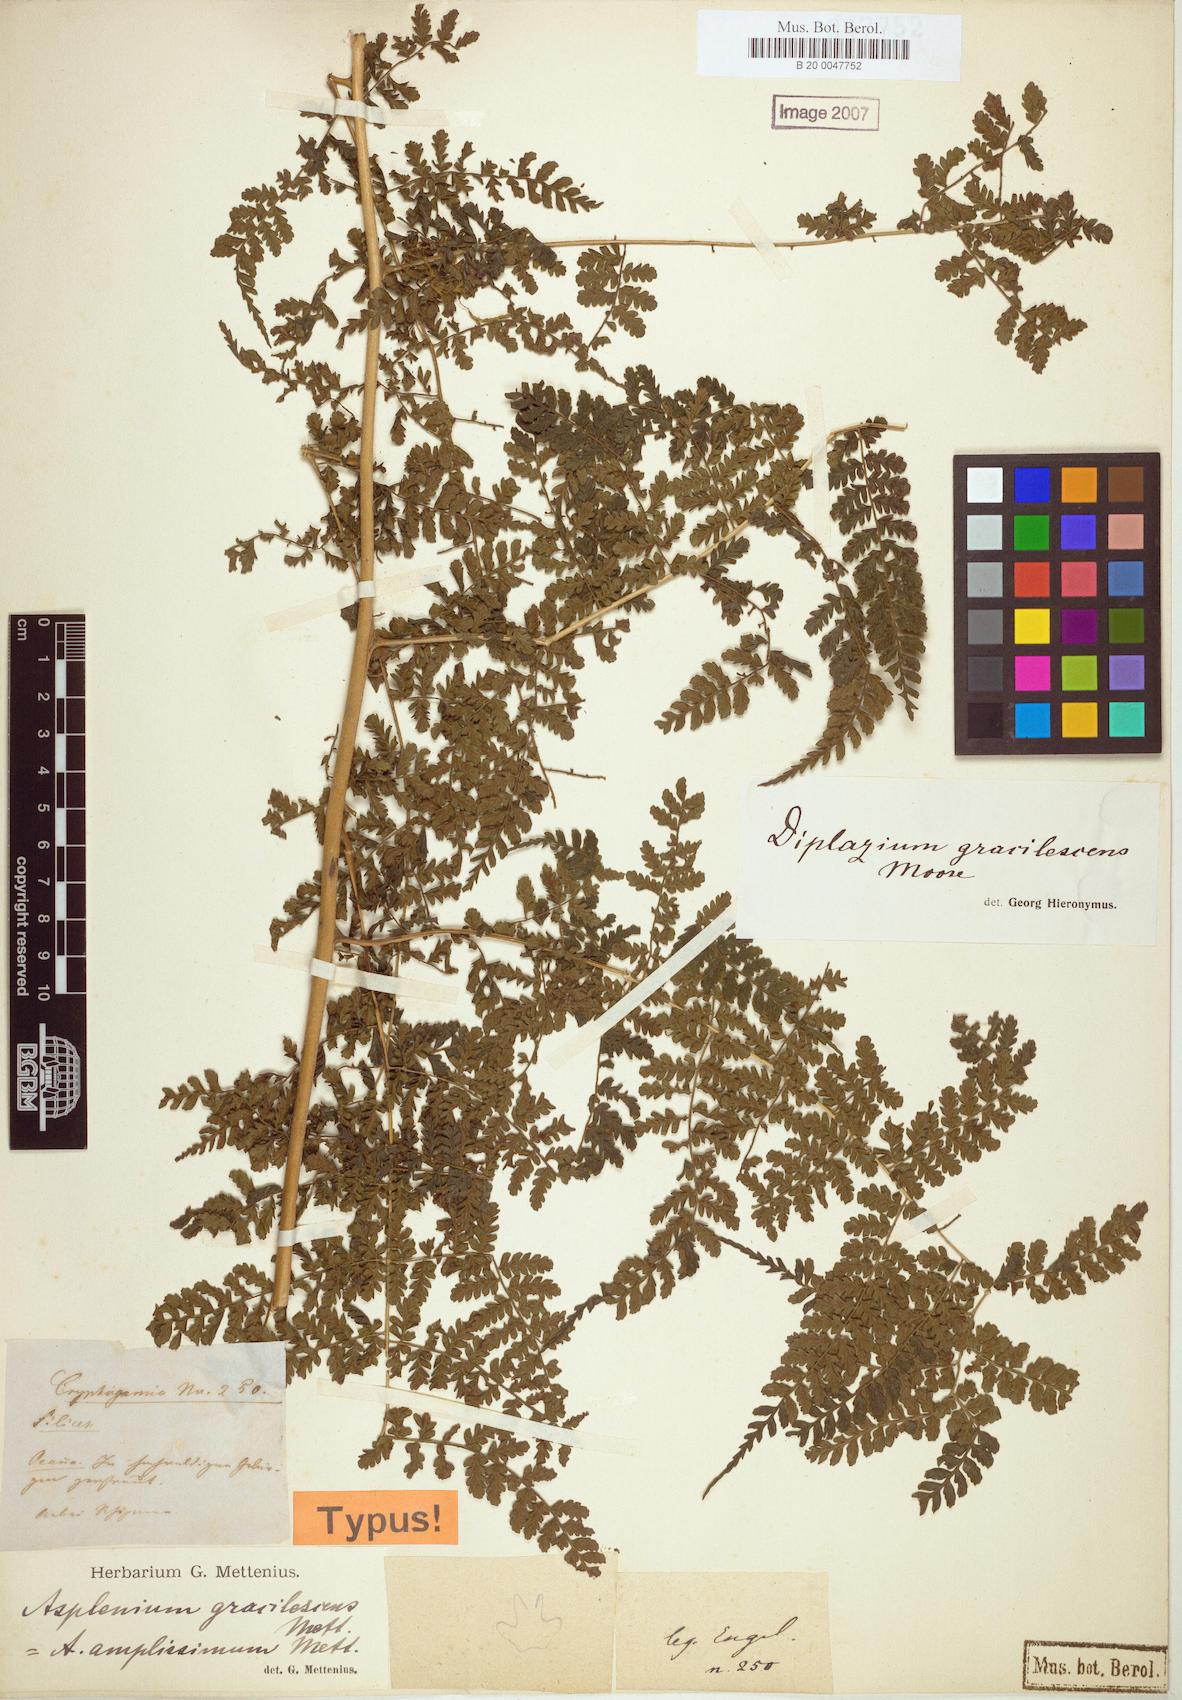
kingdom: Plantae
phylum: Tracheophyta
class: Polypodiopsida
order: Polypodiales
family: Athyriaceae
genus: Diplazium
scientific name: Diplazium gracilescens
